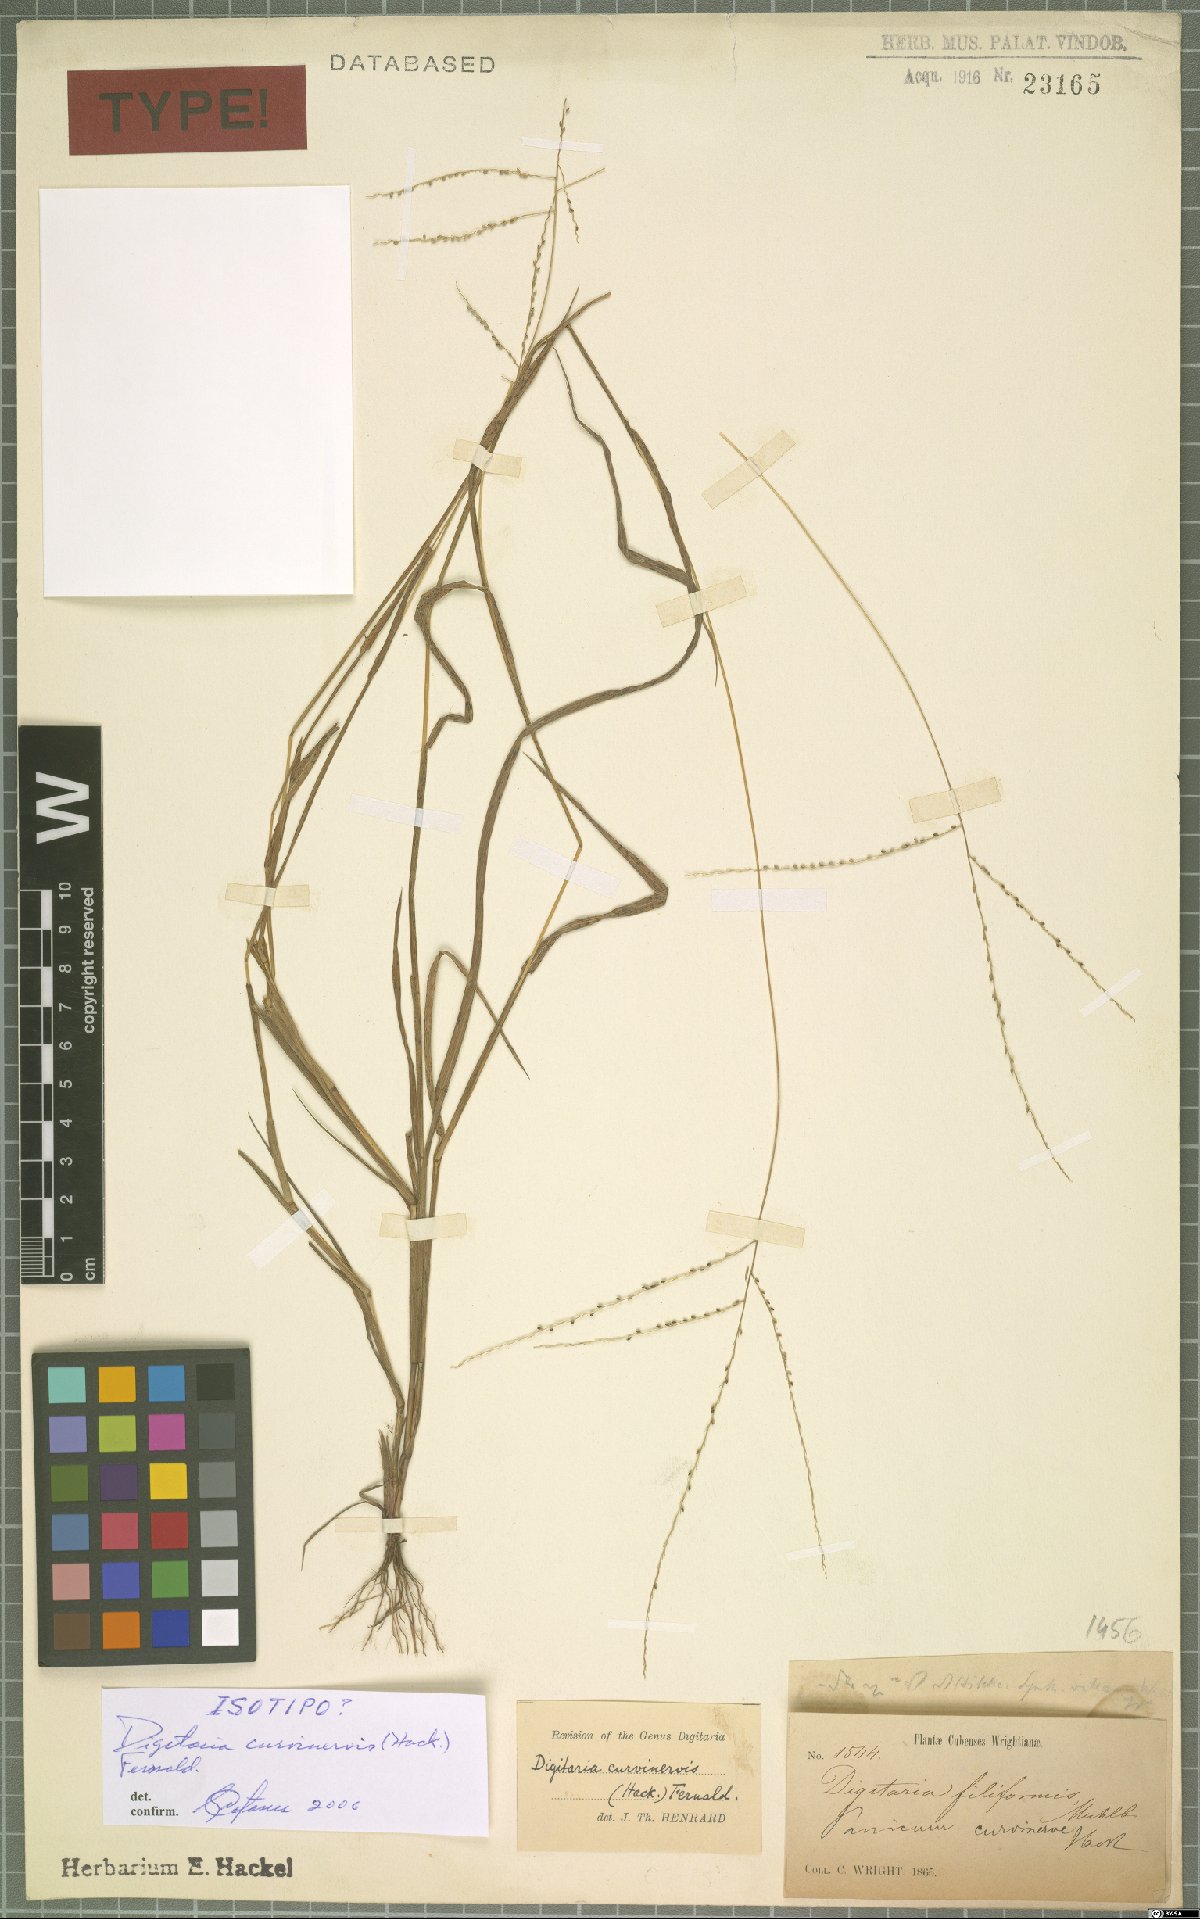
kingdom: Plantae
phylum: Tracheophyta
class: Liliopsida
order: Poales
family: Poaceae
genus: Digitaria
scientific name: Digitaria curvinervis
